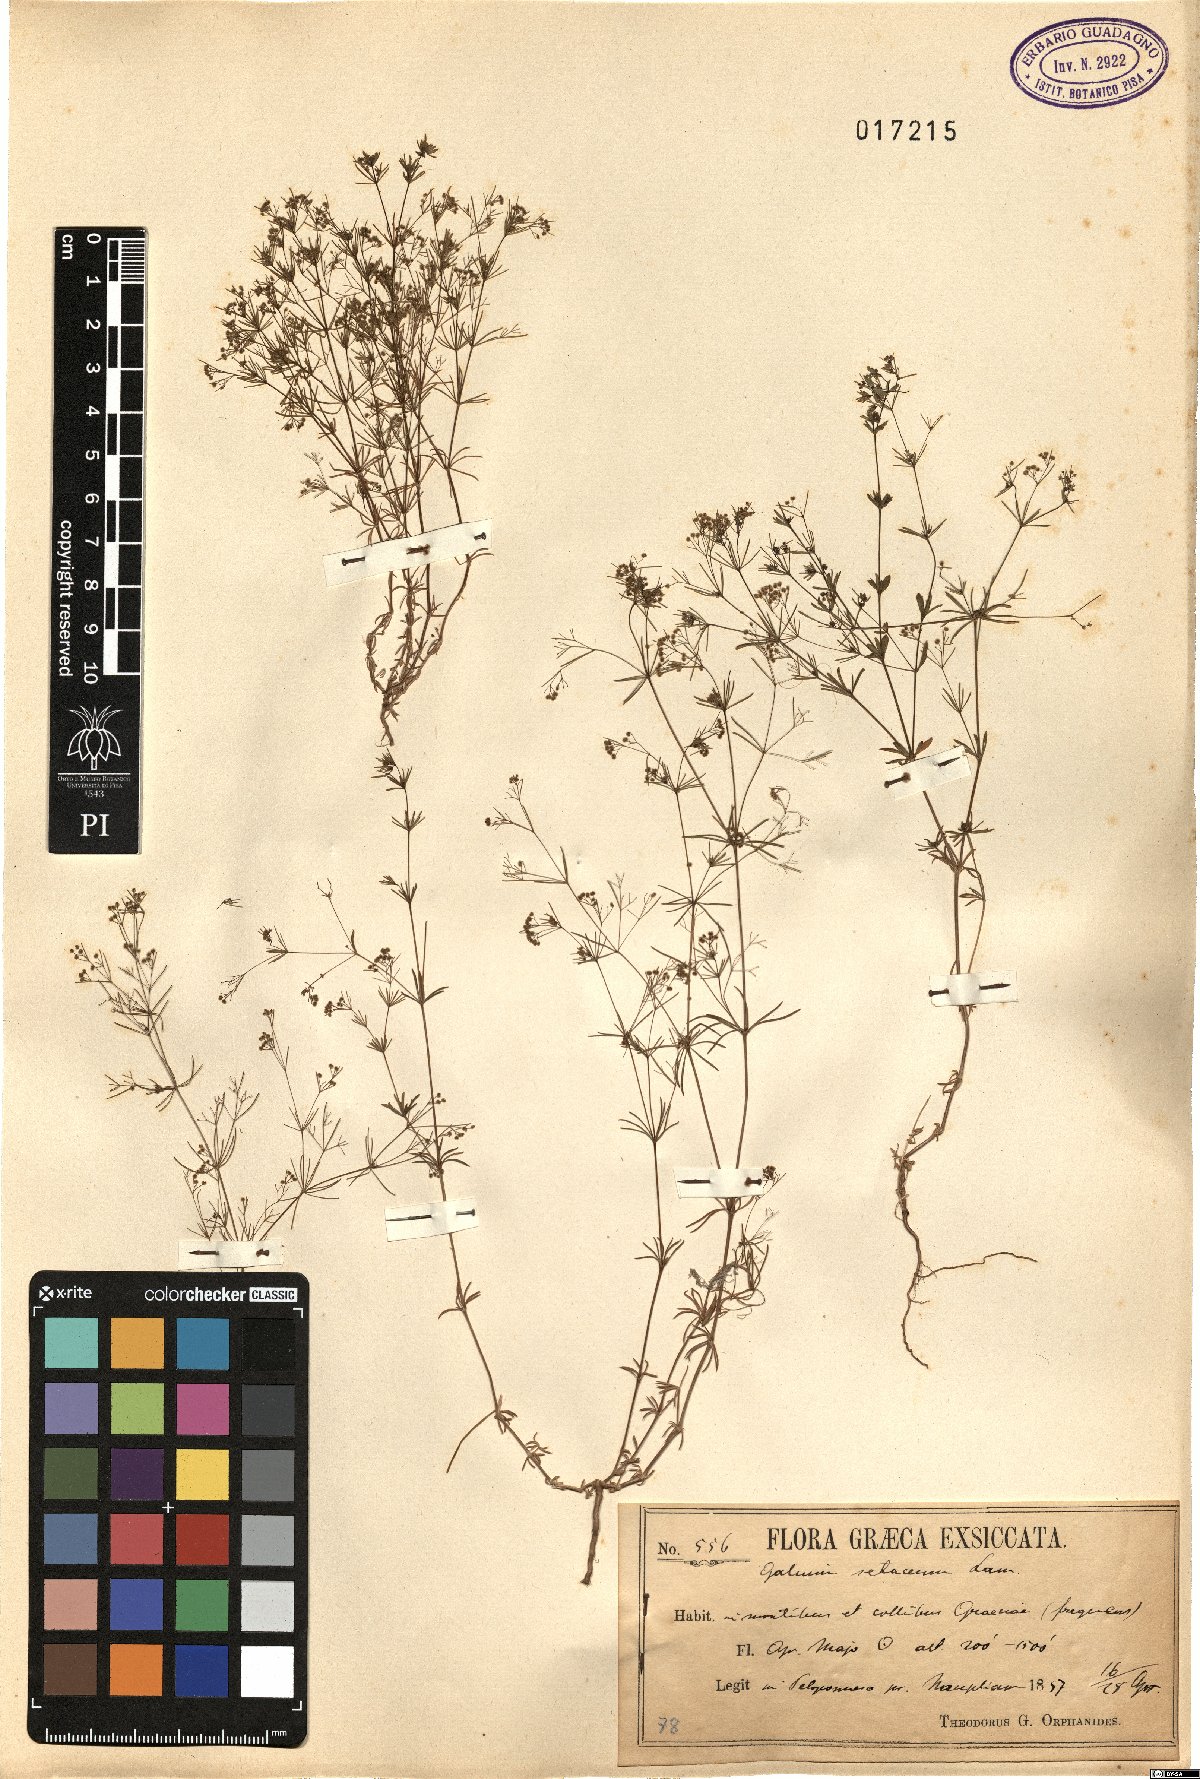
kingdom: Plantae
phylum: Tracheophyta
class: Magnoliopsida
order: Gentianales
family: Rubiaceae
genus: Galium
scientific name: Galium setaceum
